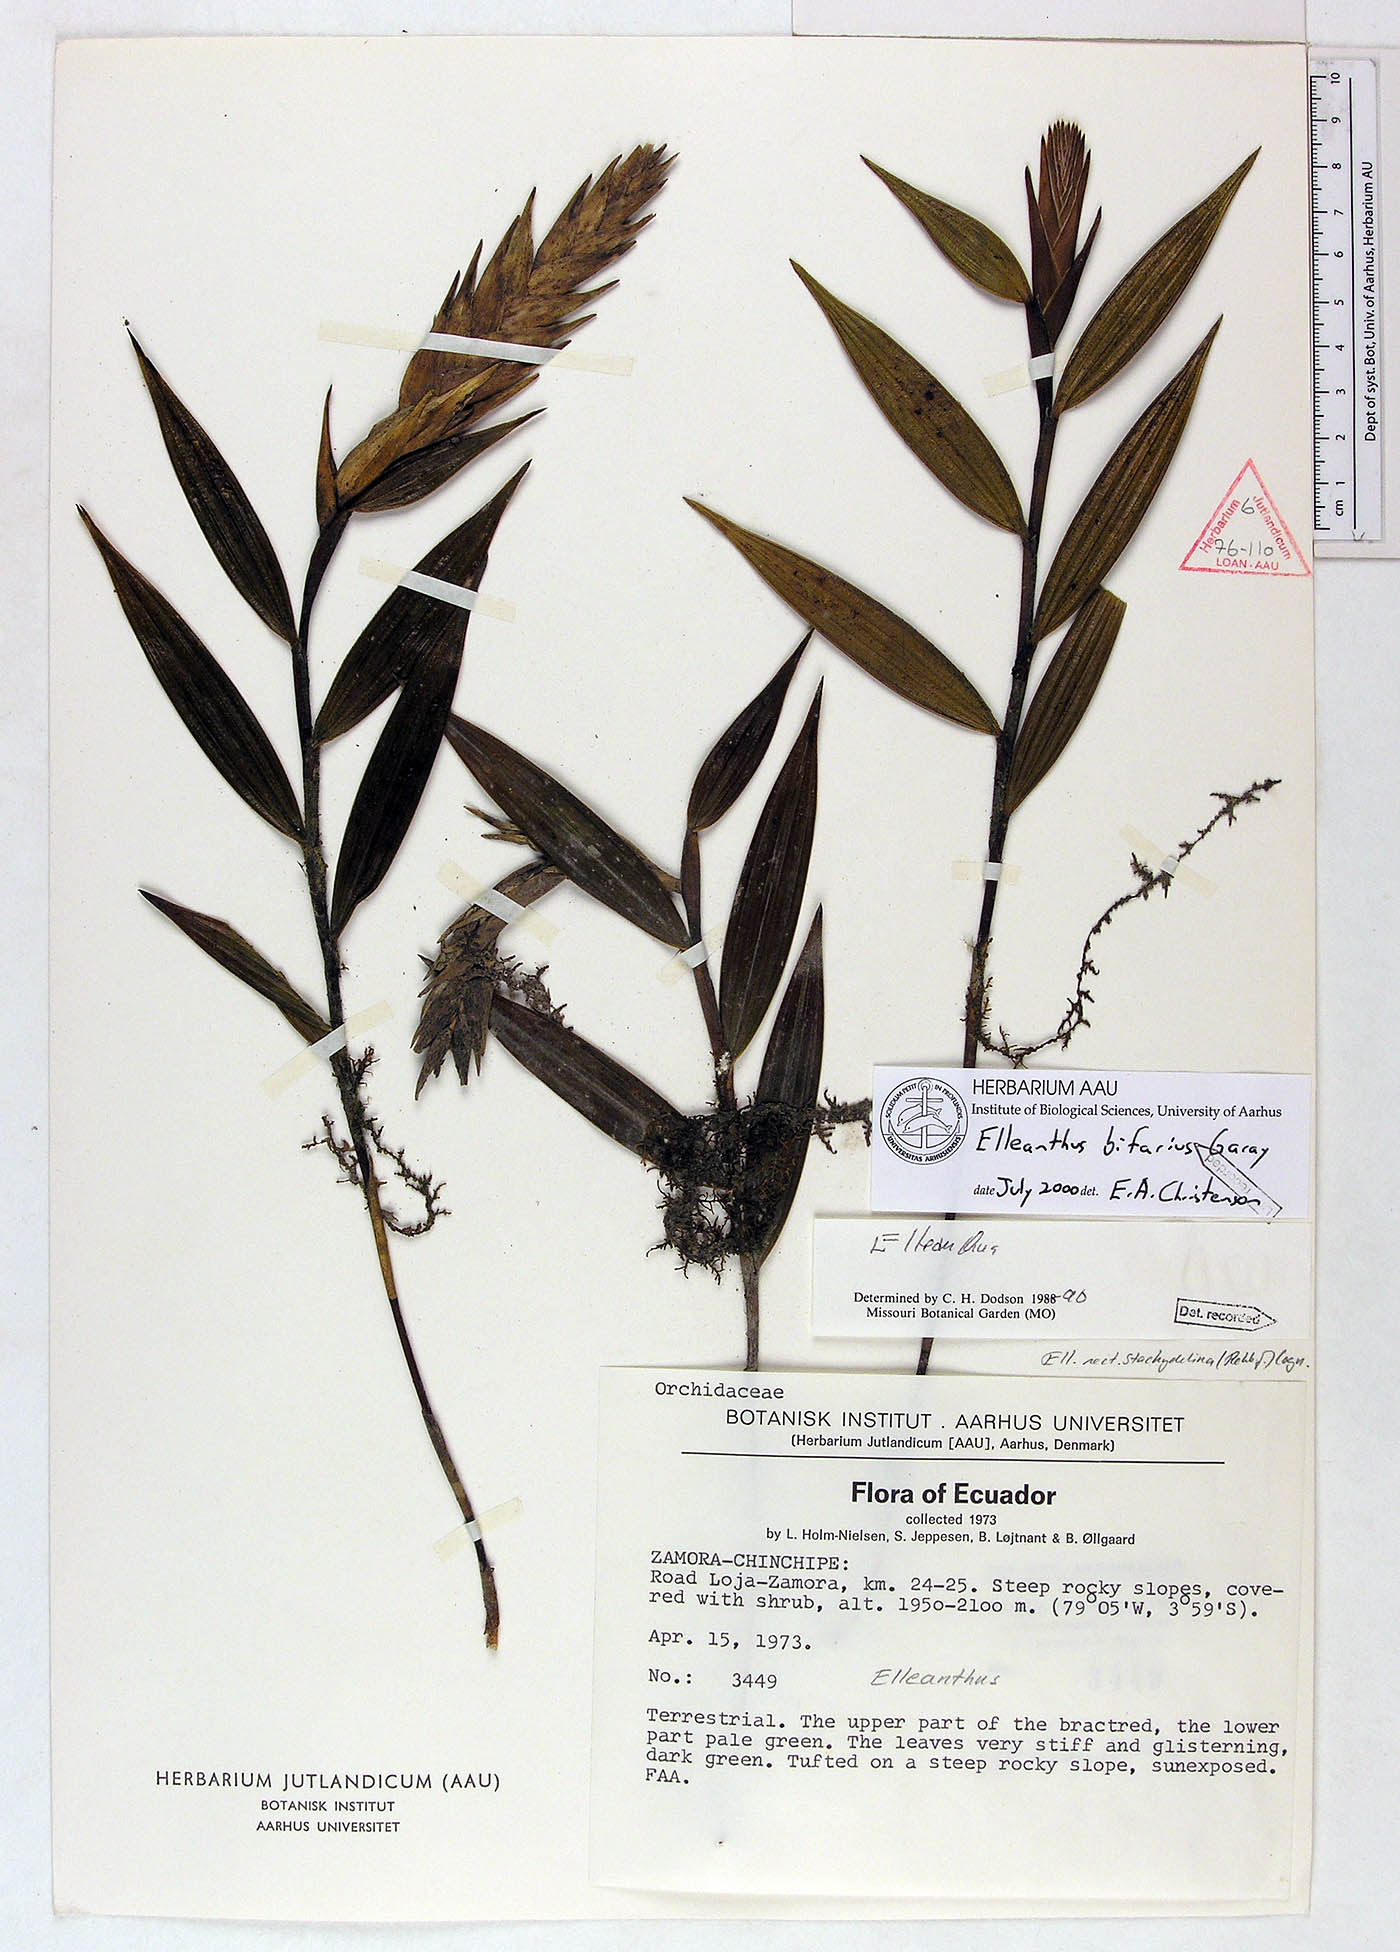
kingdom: Plantae
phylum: Tracheophyta
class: Liliopsida
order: Asparagales
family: Orchidaceae
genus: Elleanthus
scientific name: Elleanthus bifarius
